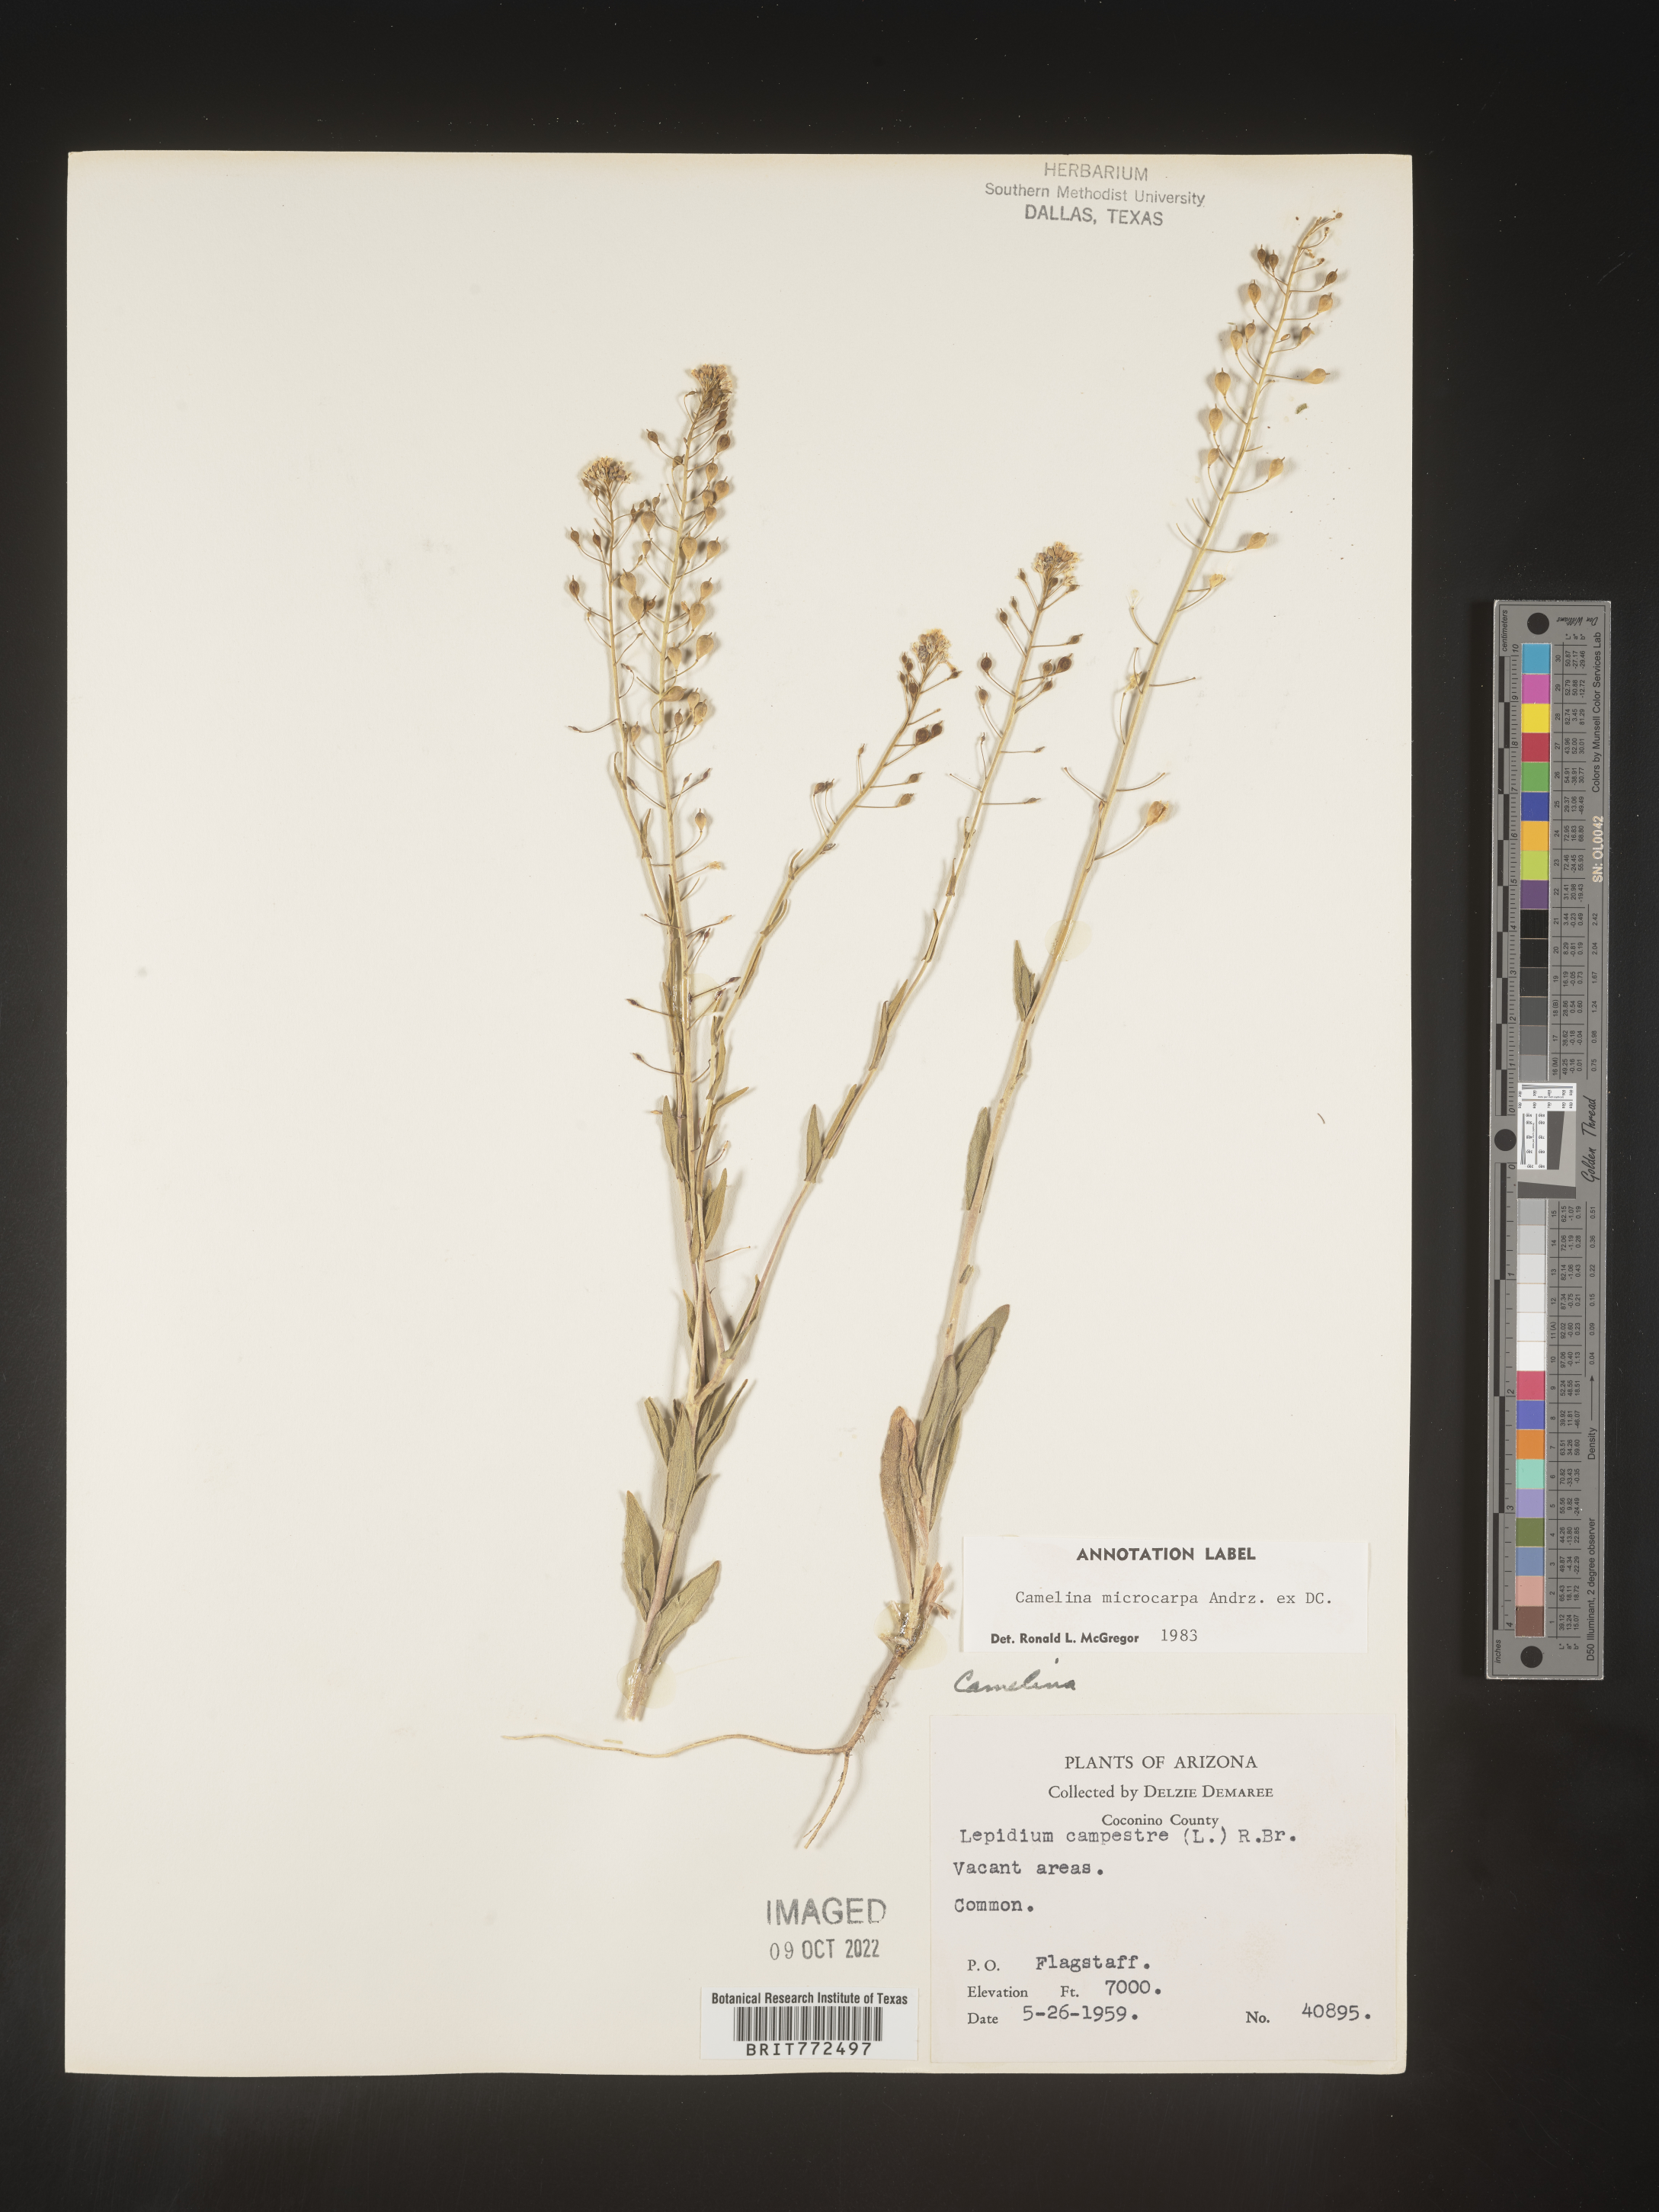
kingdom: Plantae
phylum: Tracheophyta
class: Magnoliopsida
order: Brassicales
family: Brassicaceae
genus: Camelina
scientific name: Camelina microcarpa
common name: Lesser gold-of-pleasure
